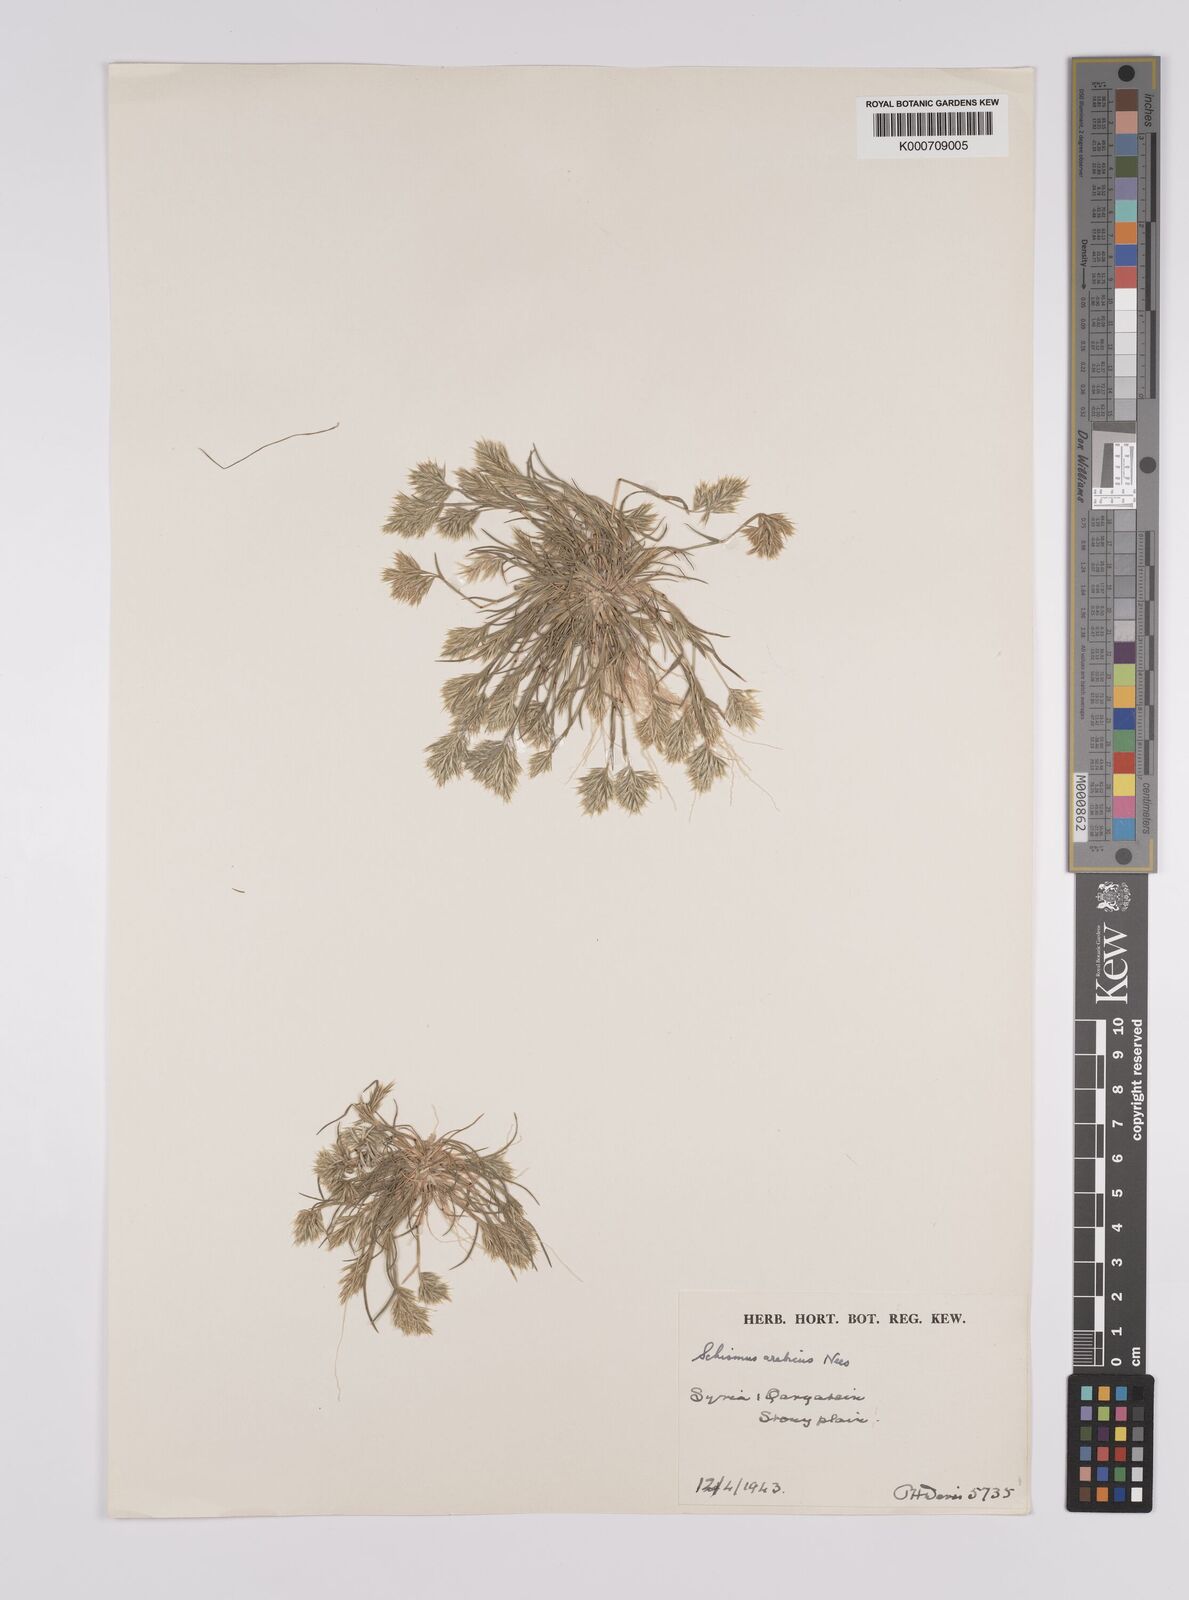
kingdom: Plantae
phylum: Tracheophyta
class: Liliopsida
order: Poales
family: Poaceae
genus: Schismus
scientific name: Schismus arabicus
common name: Arabian schismus
